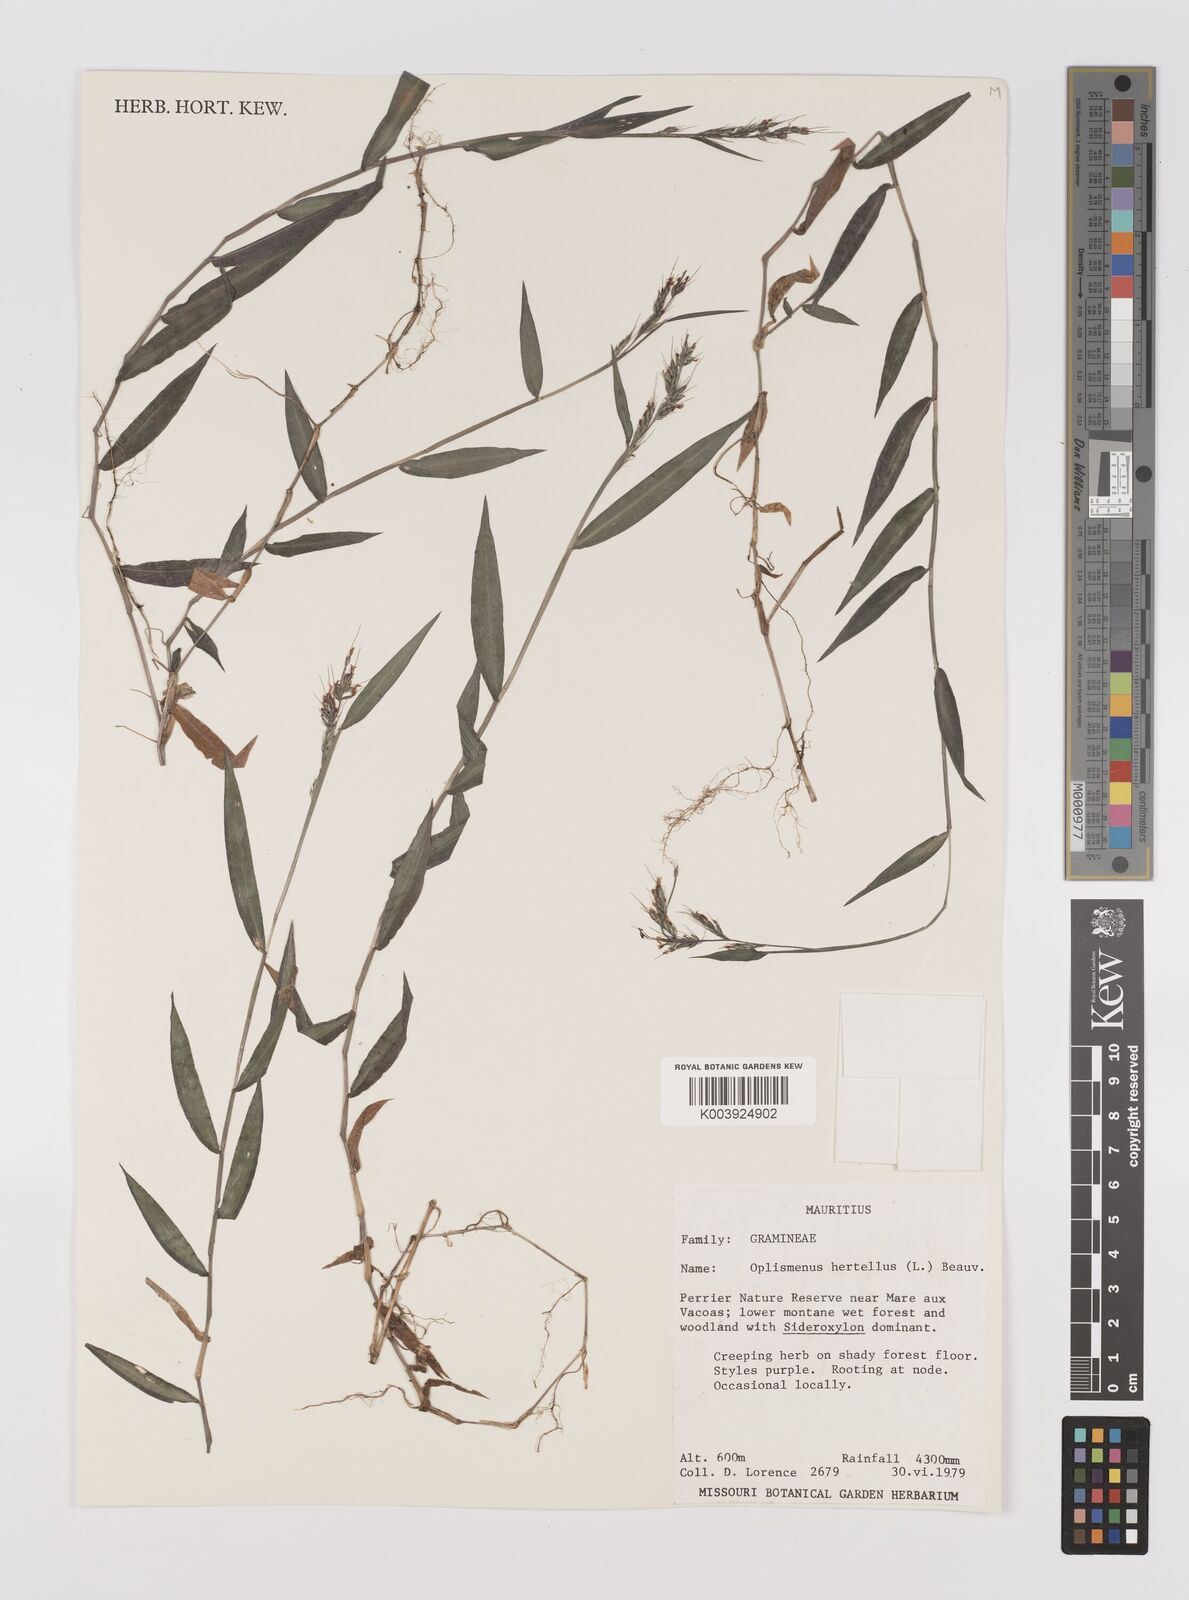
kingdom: Plantae
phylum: Tracheophyta
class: Liliopsida
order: Poales
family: Poaceae
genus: Oplismenus
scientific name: Oplismenus hirtellus
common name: Basketgrass
